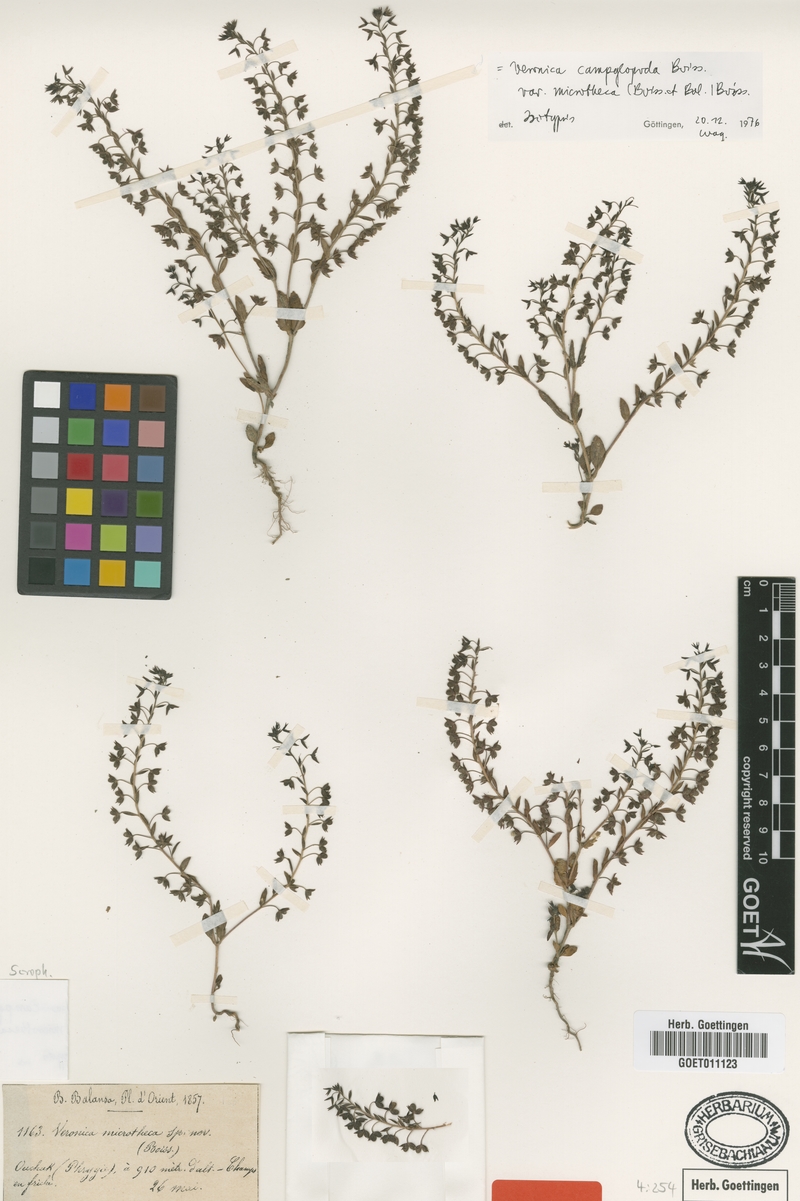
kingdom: Plantae
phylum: Tracheophyta
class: Magnoliopsida
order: Lamiales
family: Plantaginaceae
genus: Veronica
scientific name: Veronica campylopoda
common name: Bent-foot speedwell
